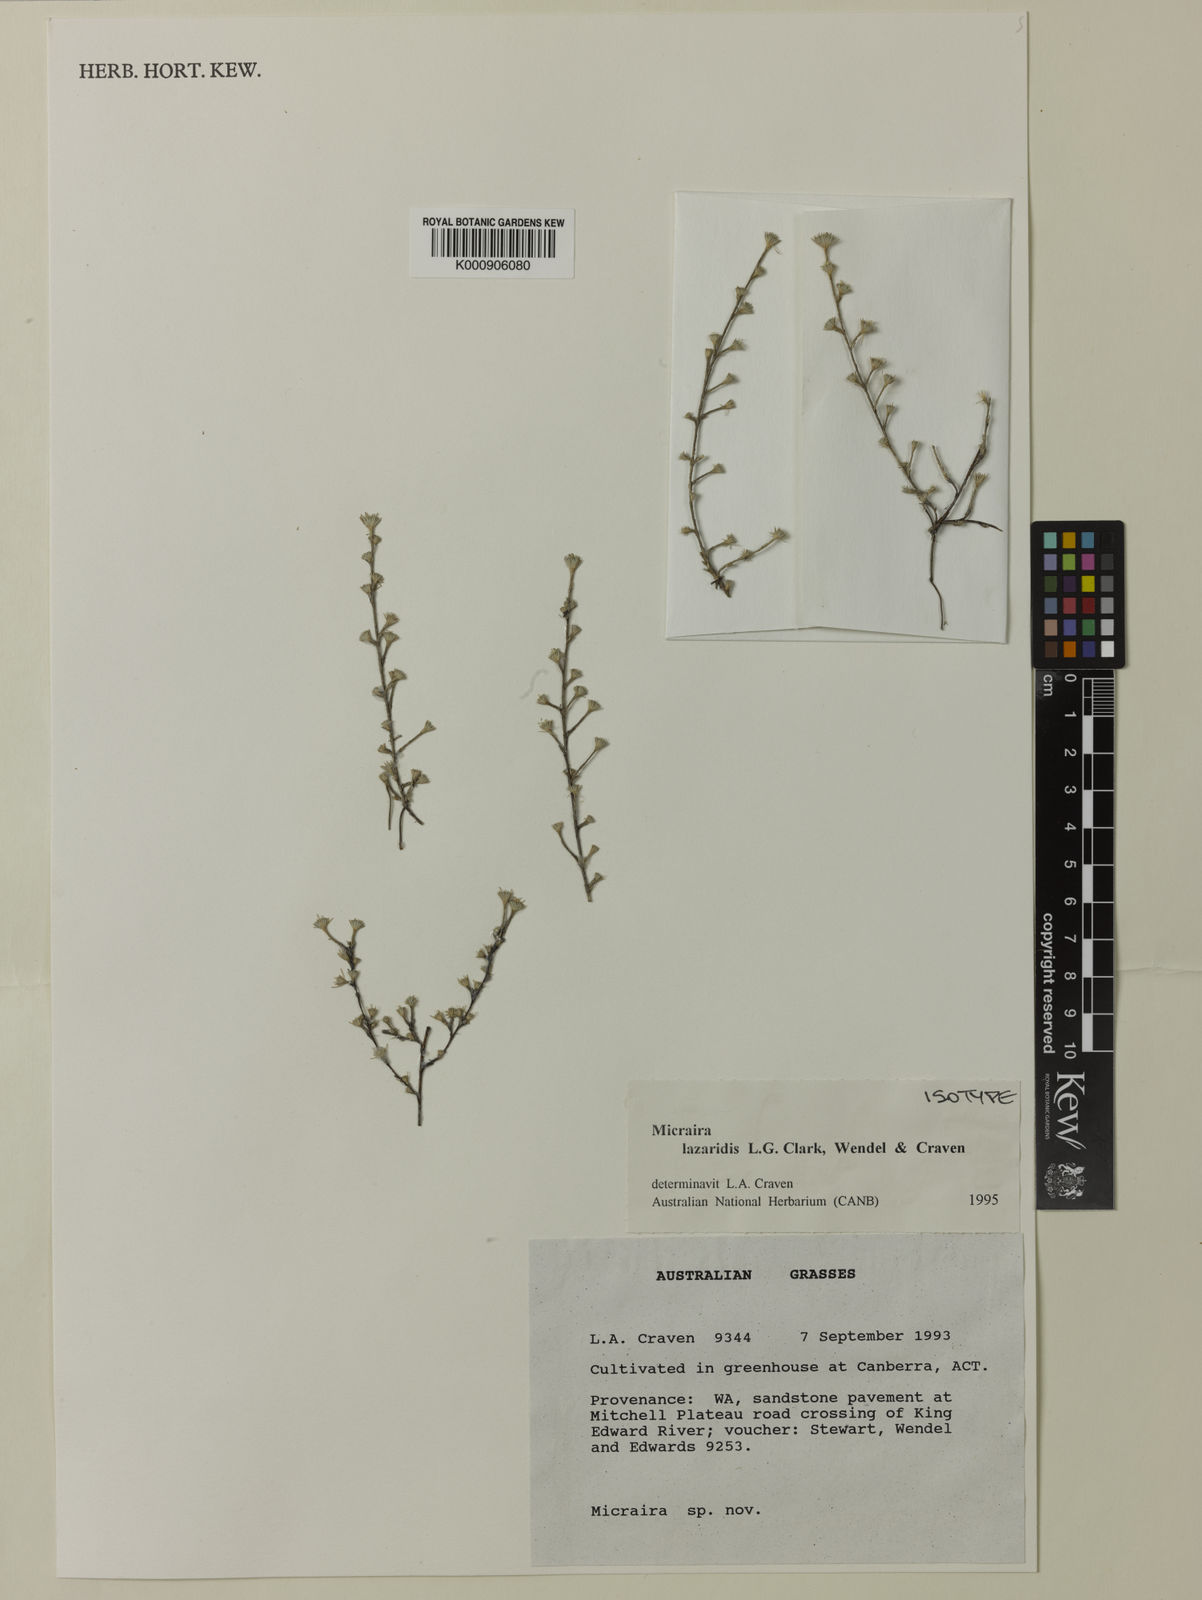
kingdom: Plantae
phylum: Tracheophyta
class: Liliopsida
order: Poales
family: Poaceae
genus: Micraira
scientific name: Micraira lazaridis
